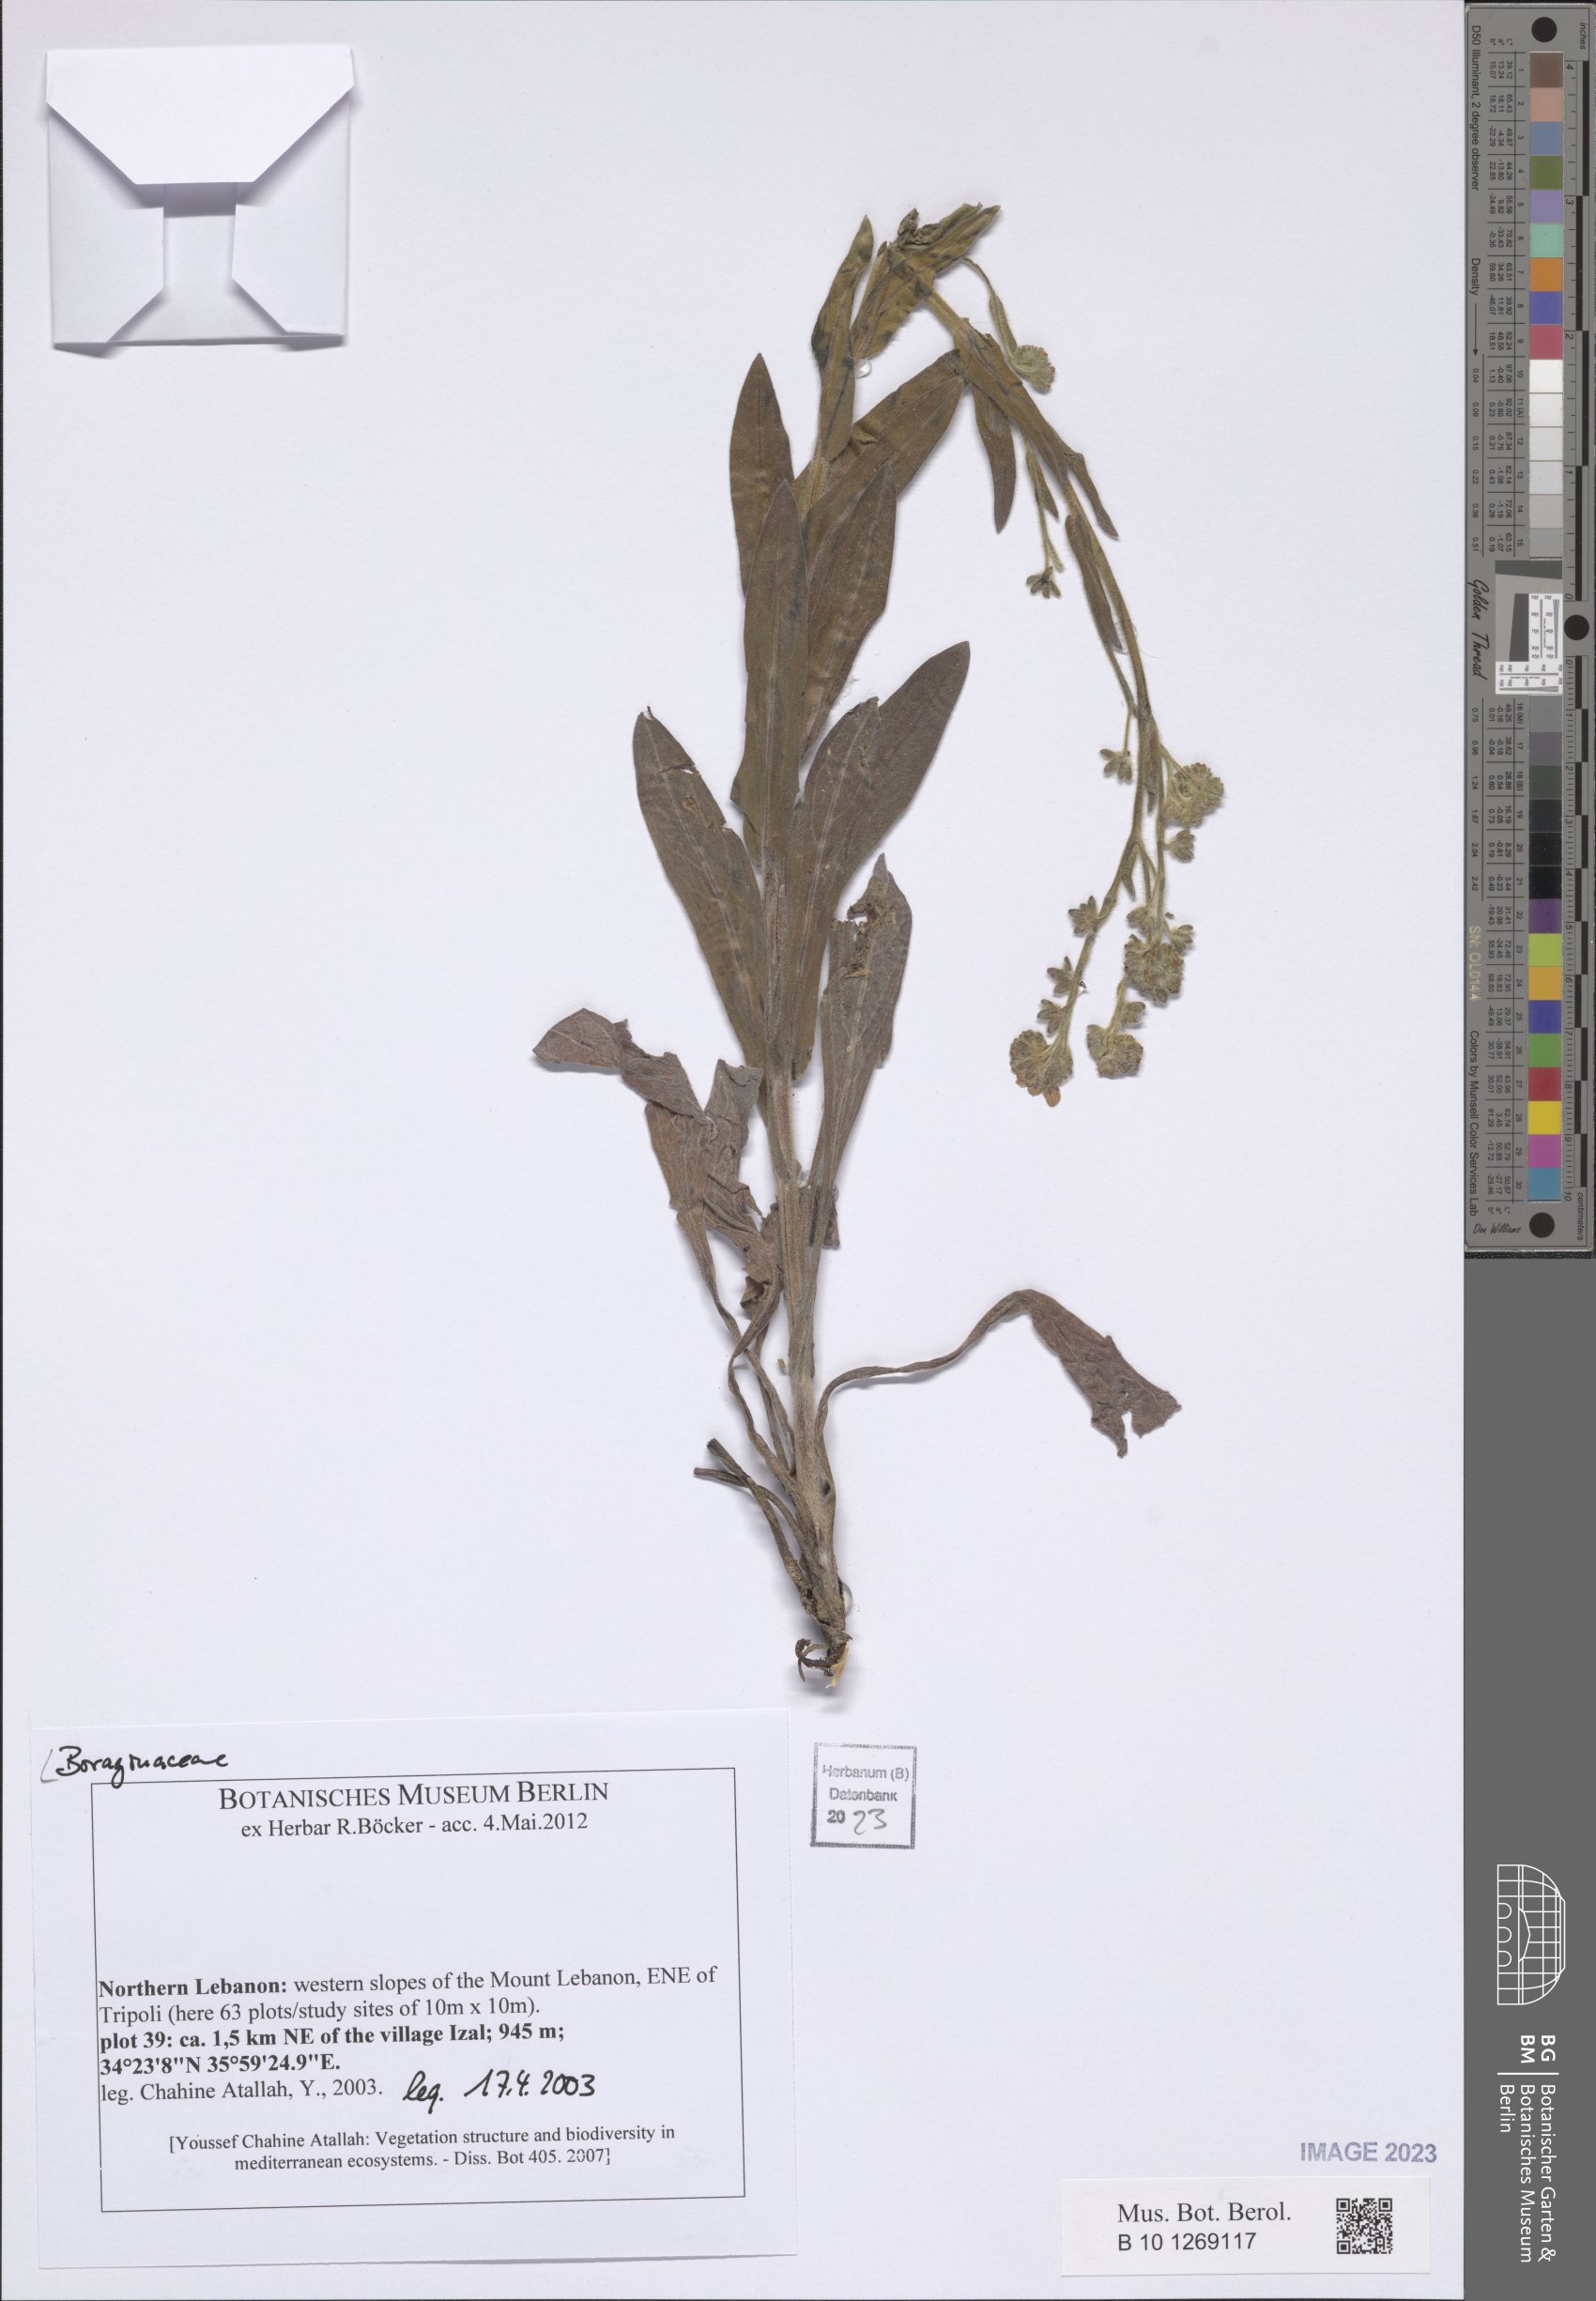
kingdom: Plantae
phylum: Tracheophyta
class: Magnoliopsida
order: Boraginales
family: Boraginaceae
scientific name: Boraginaceae
